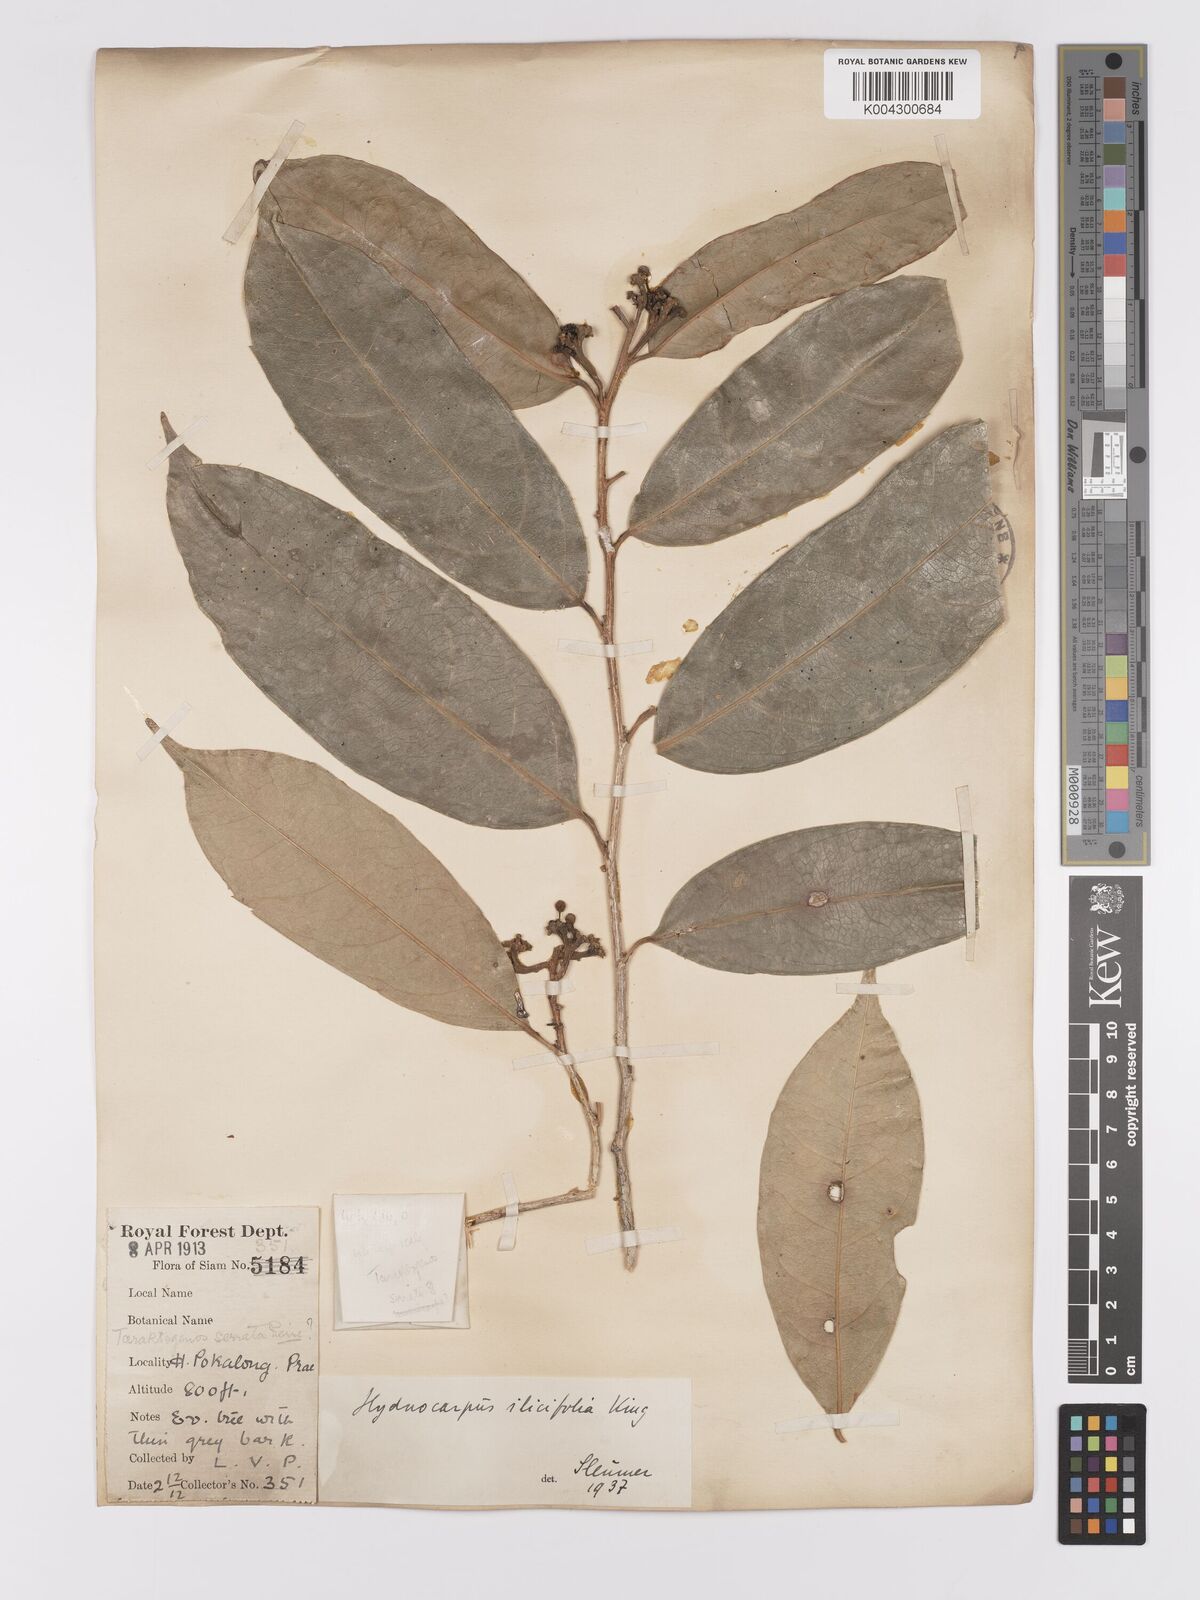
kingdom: Plantae
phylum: Tracheophyta
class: Magnoliopsida
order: Malpighiales
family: Achariaceae
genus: Hydnocarpus
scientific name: Hydnocarpus ilicifolius
